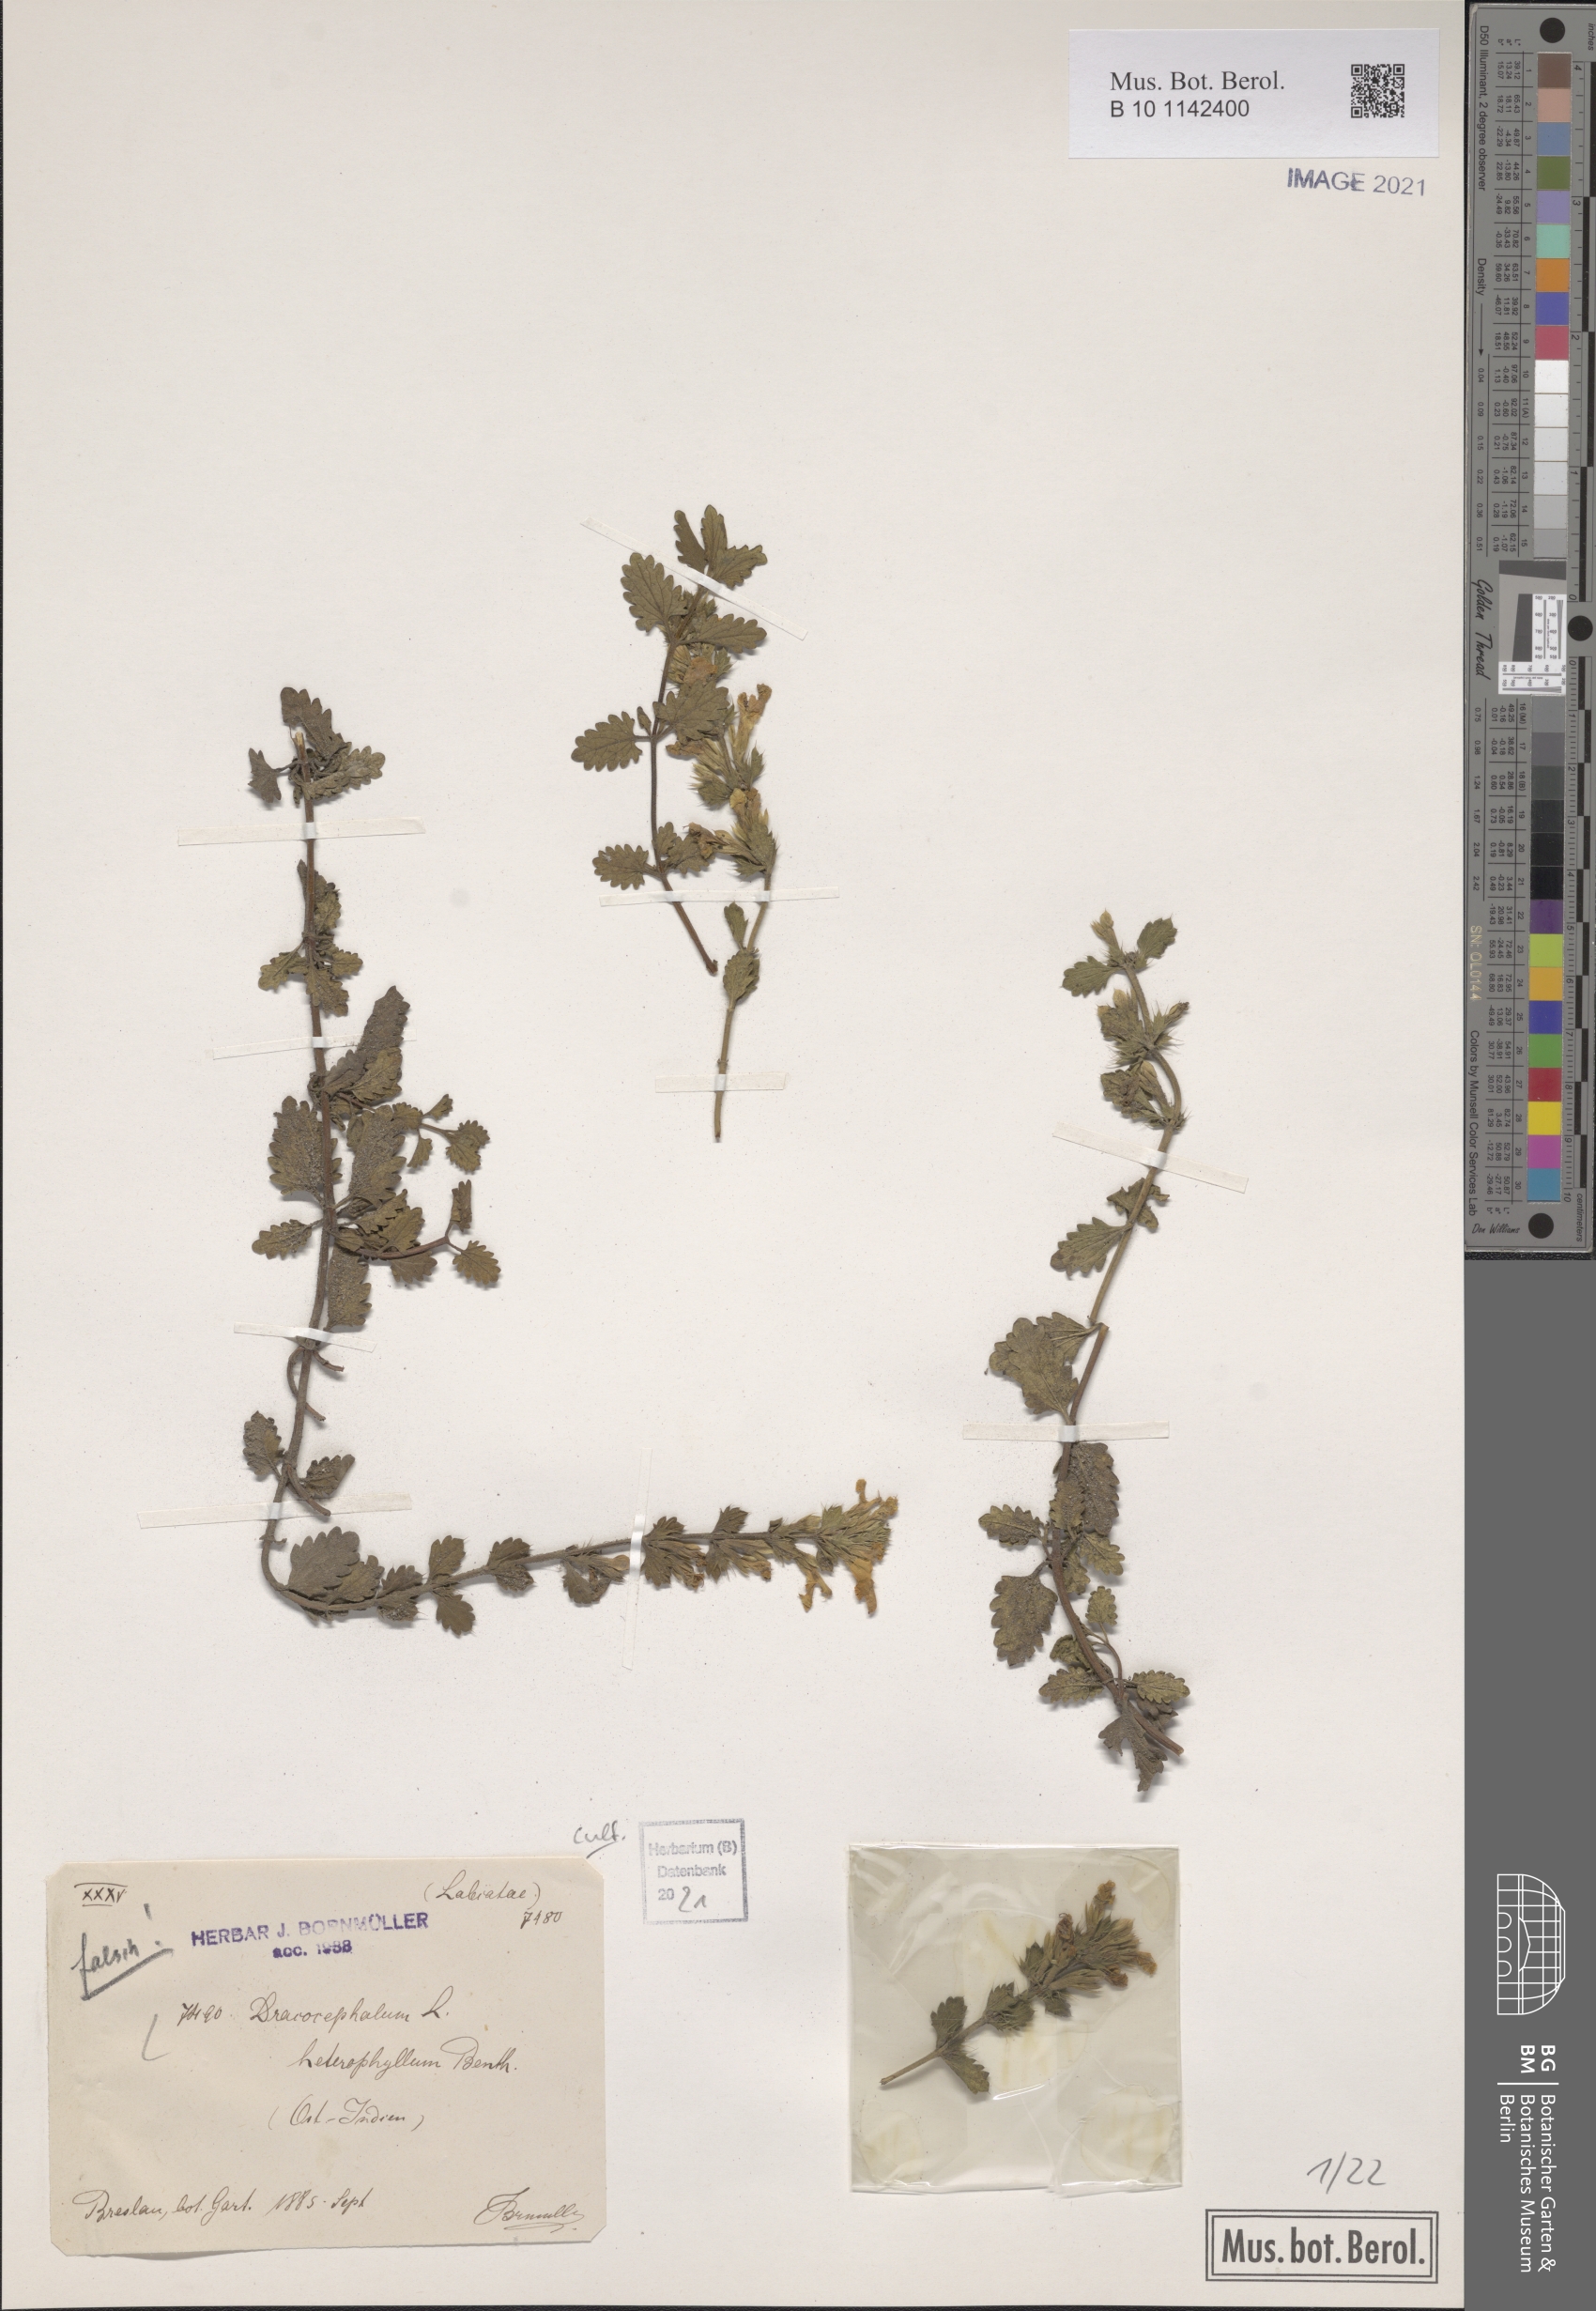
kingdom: Plantae
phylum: Tracheophyta
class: Magnoliopsida
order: Lamiales
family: Lamiaceae
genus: Dracocephalum
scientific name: Dracocephalum heterophyllum
